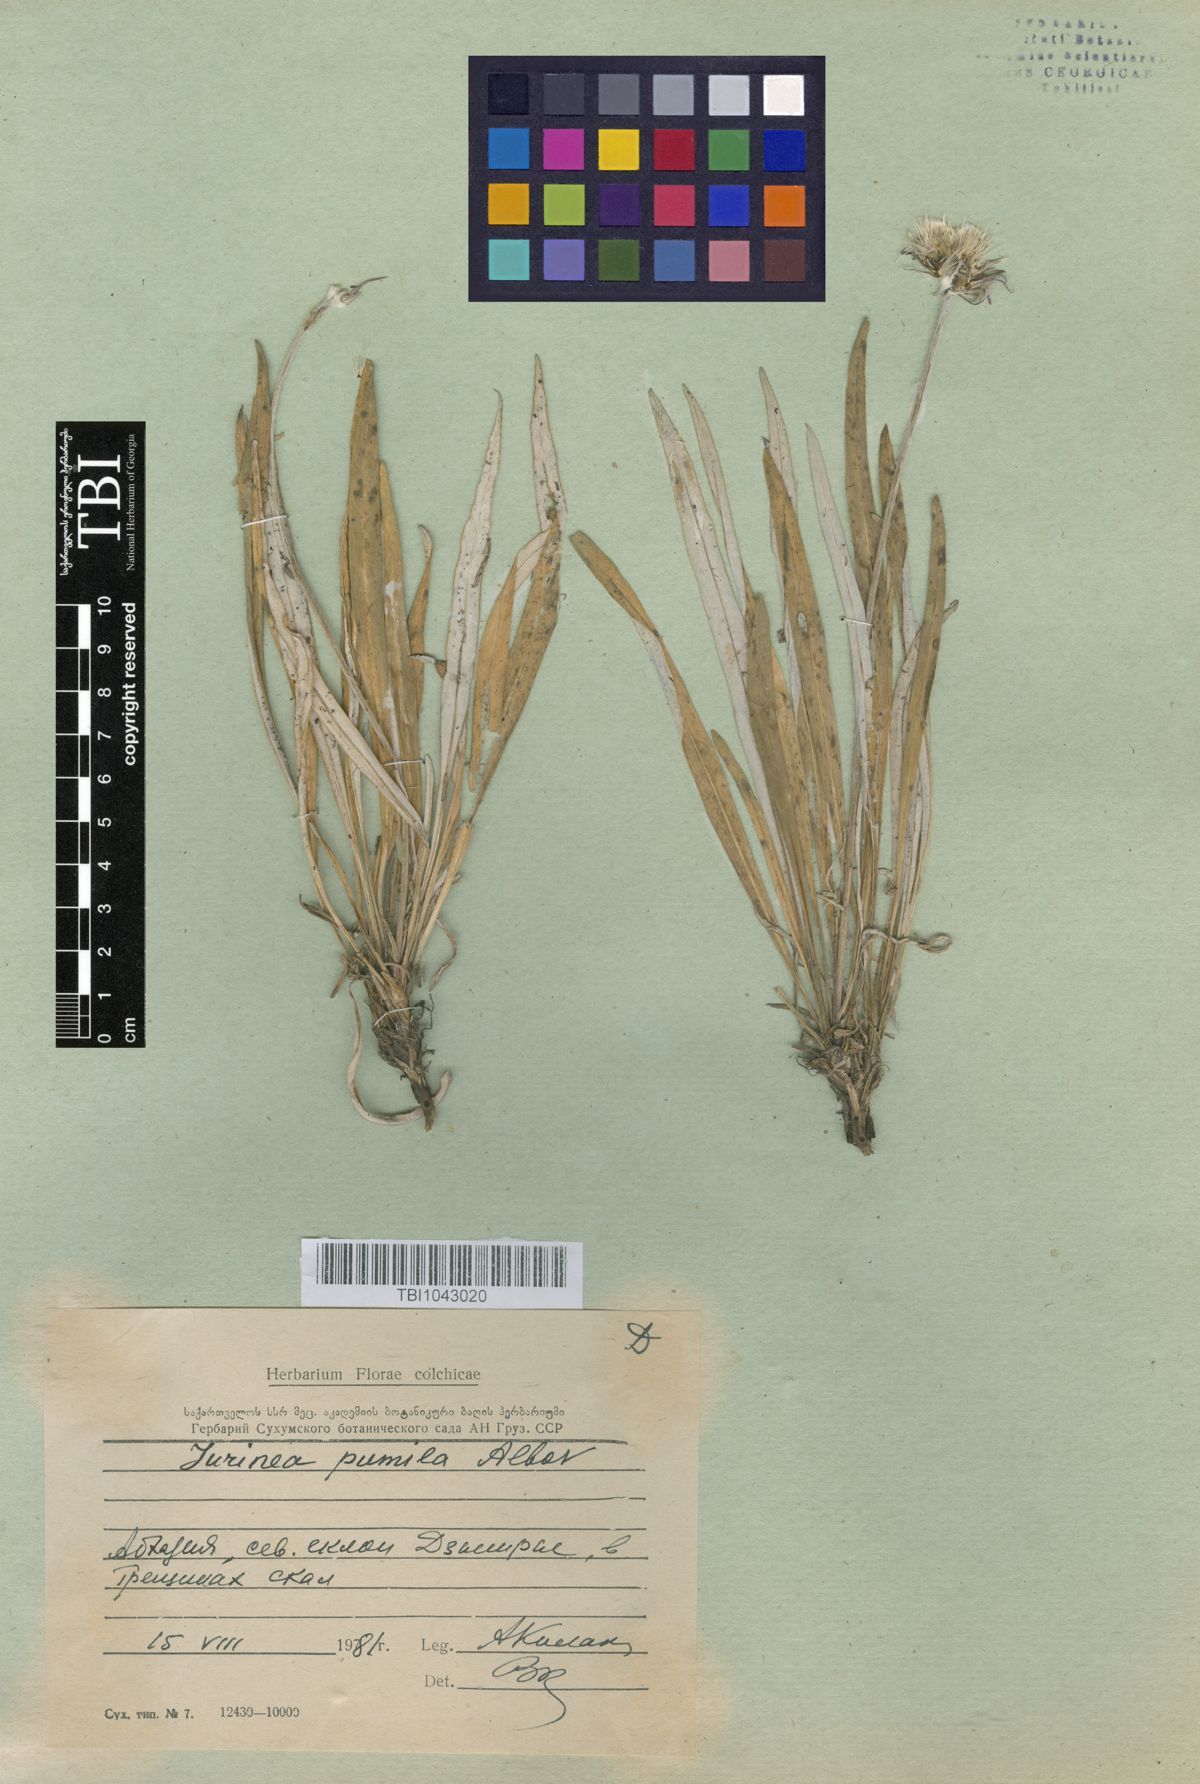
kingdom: Plantae
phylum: Tracheophyta
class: Magnoliopsida
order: Asterales
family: Asteraceae
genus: Jurinea
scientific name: Jurinea pumila
